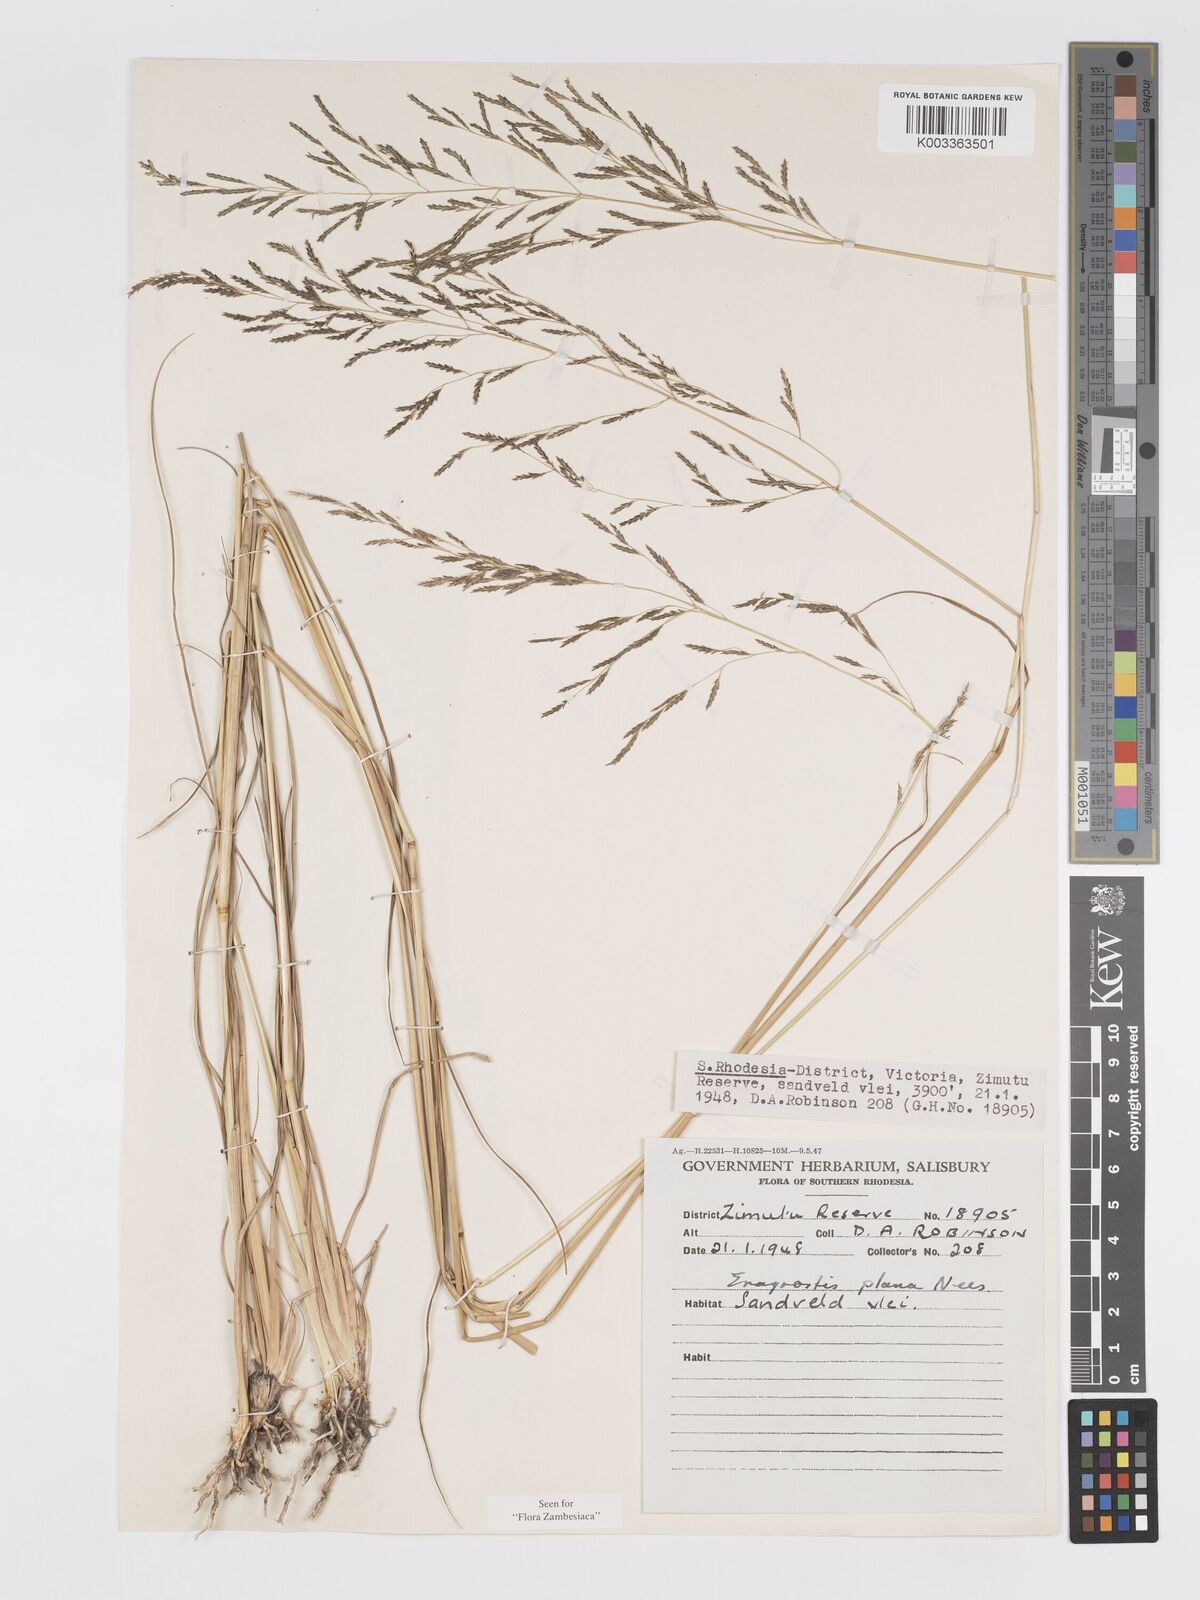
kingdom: Plantae
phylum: Tracheophyta
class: Liliopsida
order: Poales
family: Poaceae
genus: Eragrostis
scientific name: Eragrostis plana
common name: South african lovegrass
